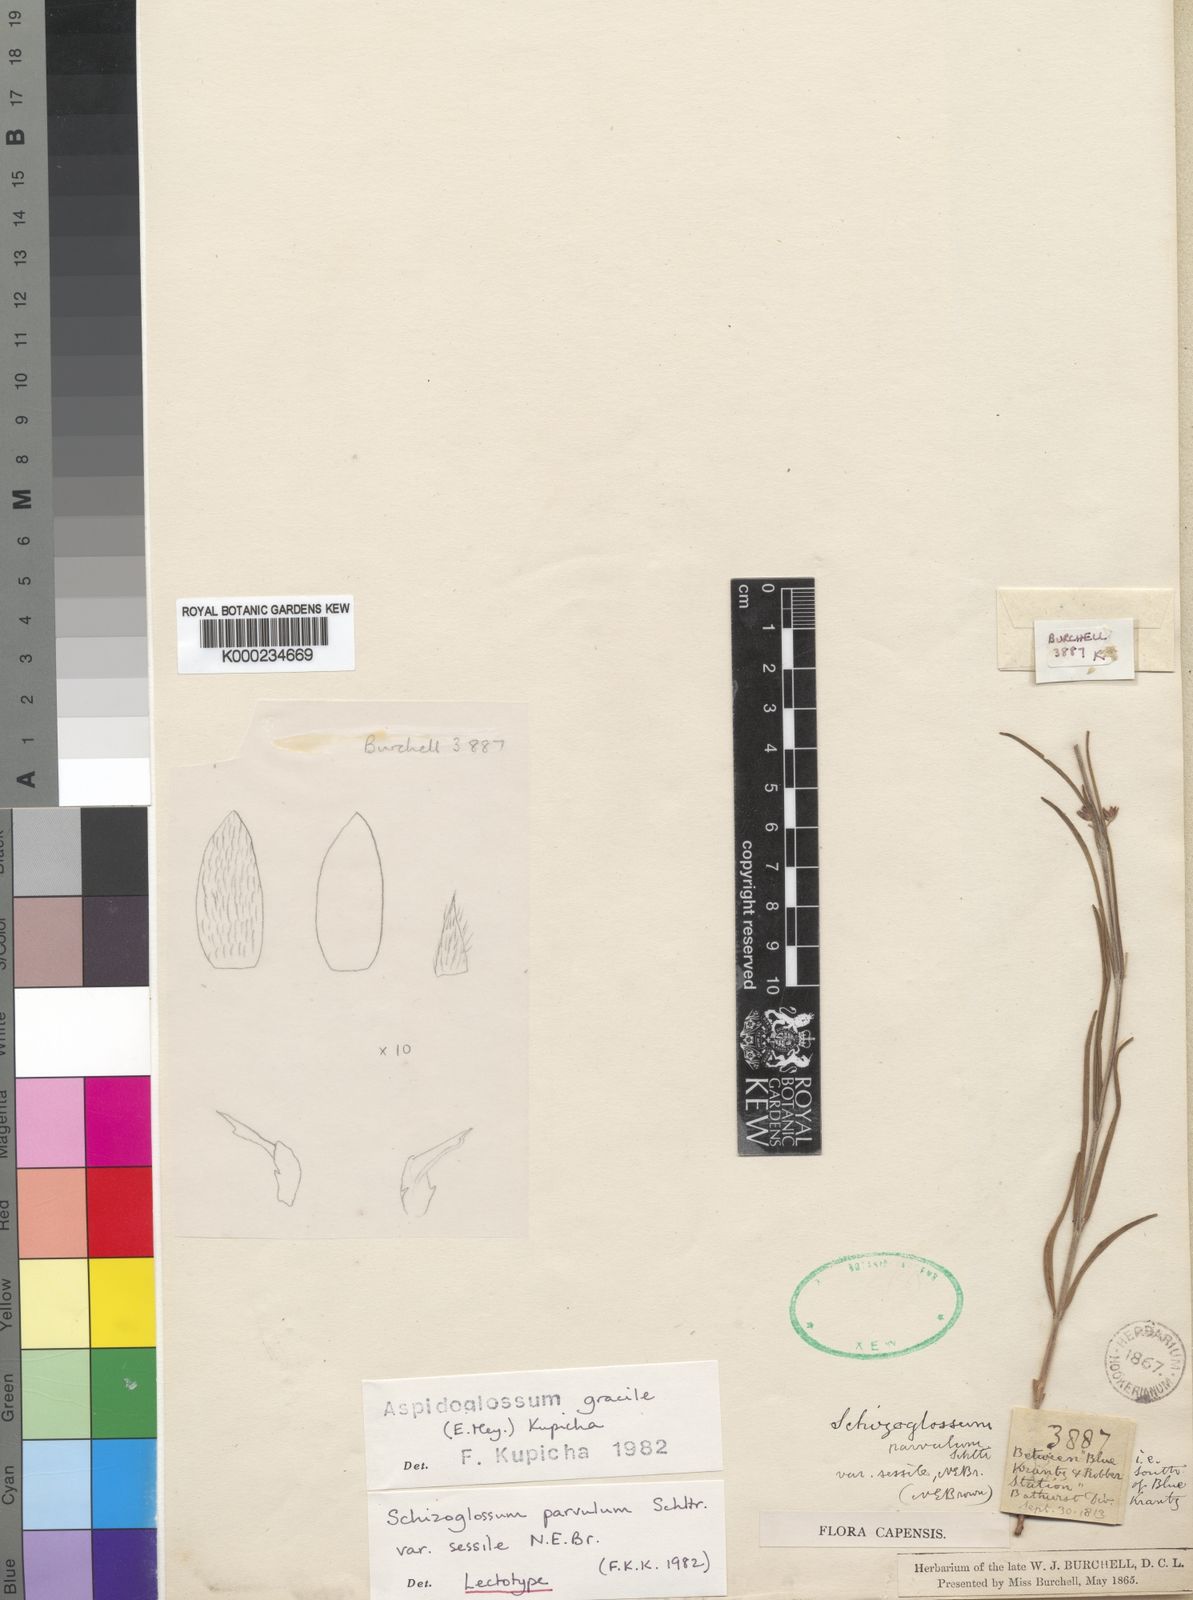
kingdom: Plantae
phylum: Tracheophyta
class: Magnoliopsida
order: Gentianales
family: Apocynaceae
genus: Aspidoglossum
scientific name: Aspidoglossum gracile
